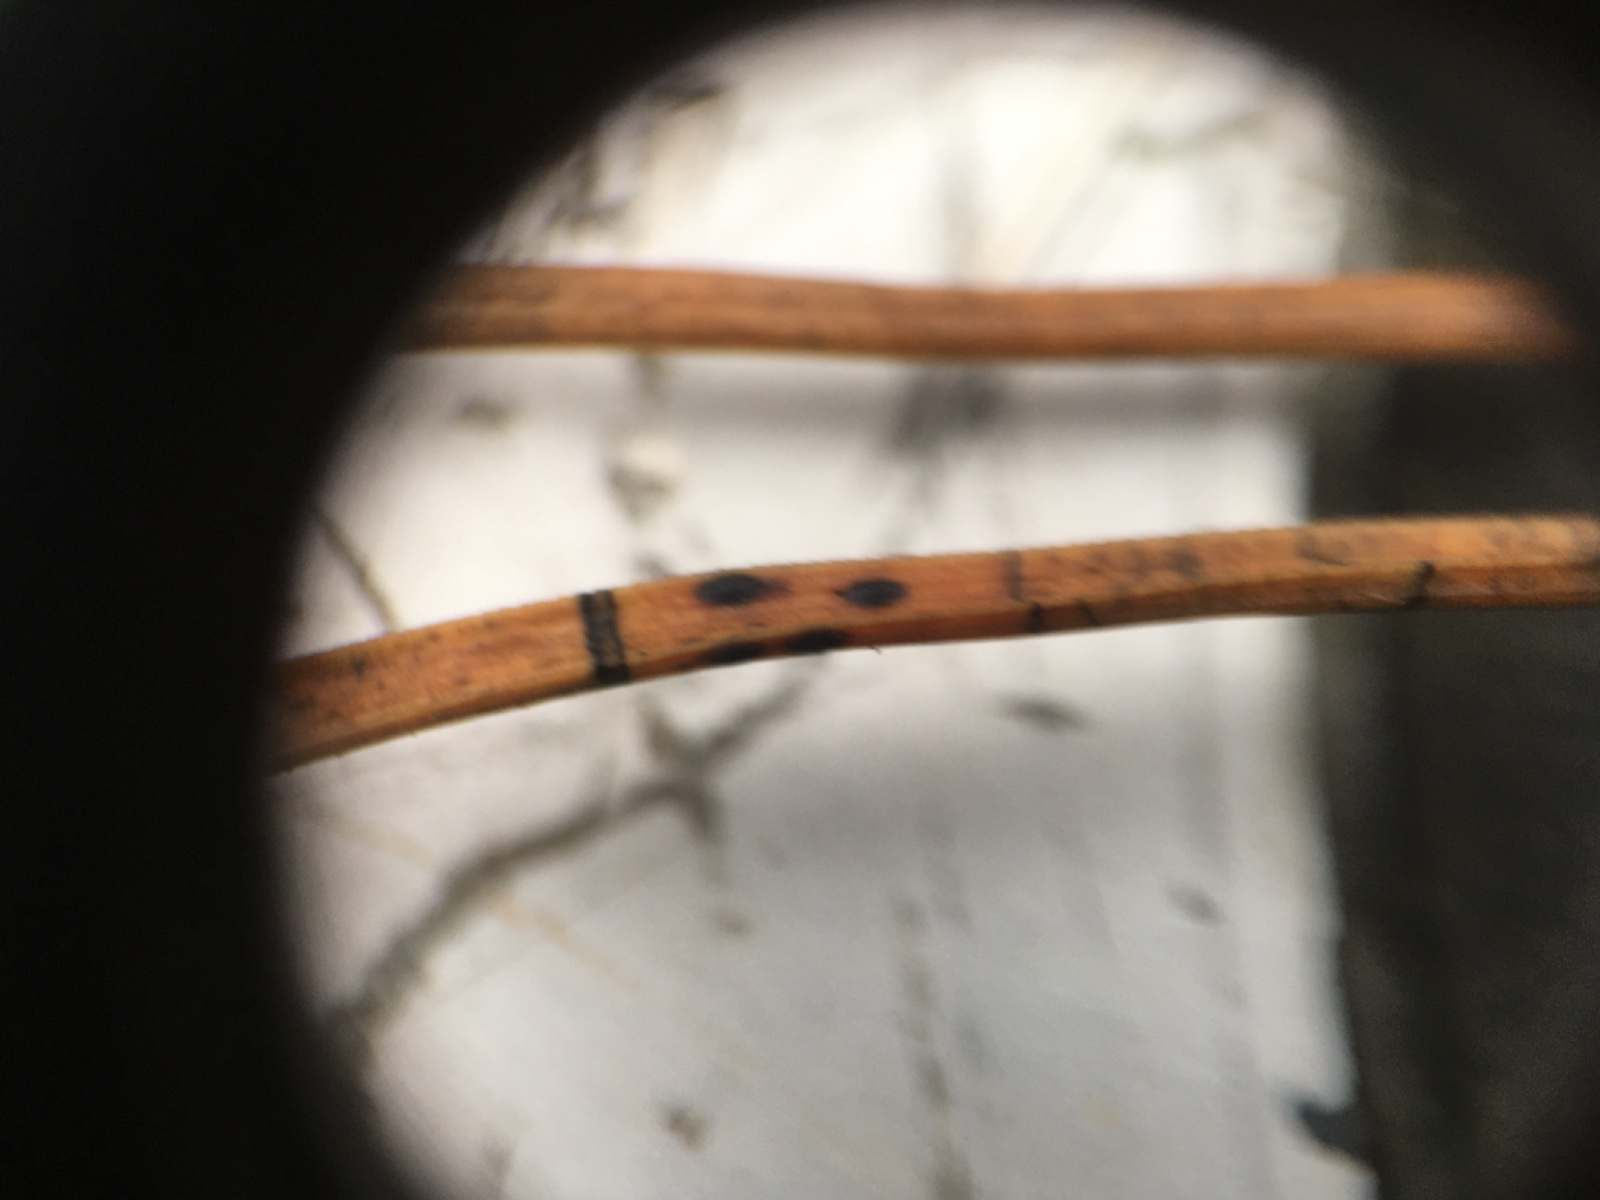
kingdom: Fungi
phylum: Ascomycota
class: Leotiomycetes
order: Rhytismatales
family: Rhytismataceae
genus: Lophodermium
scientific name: Lophodermium pinastri
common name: fyrre-fureplet
